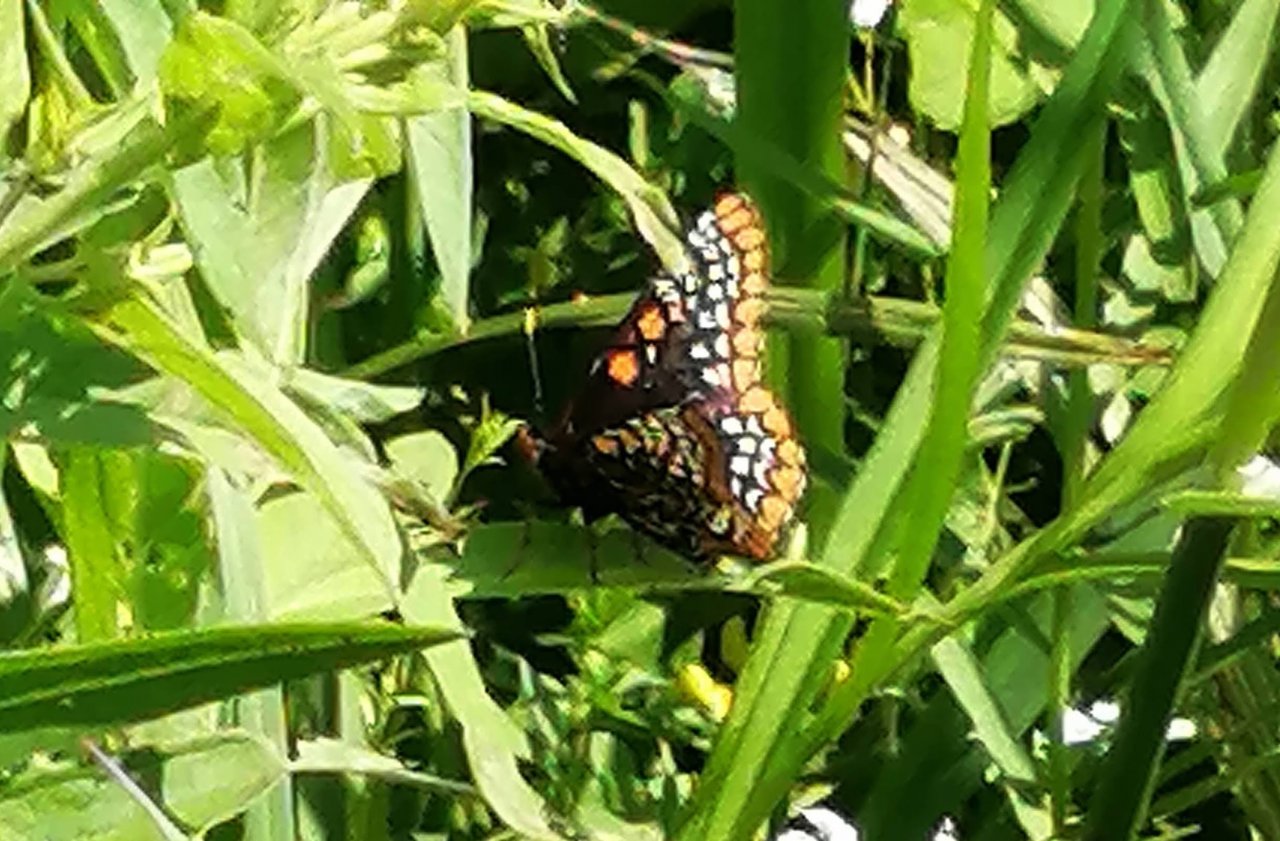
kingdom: Animalia
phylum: Arthropoda
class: Insecta
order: Lepidoptera
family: Nymphalidae
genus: Euphydryas
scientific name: Euphydryas phaeton
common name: Baltimore Checkerspot
